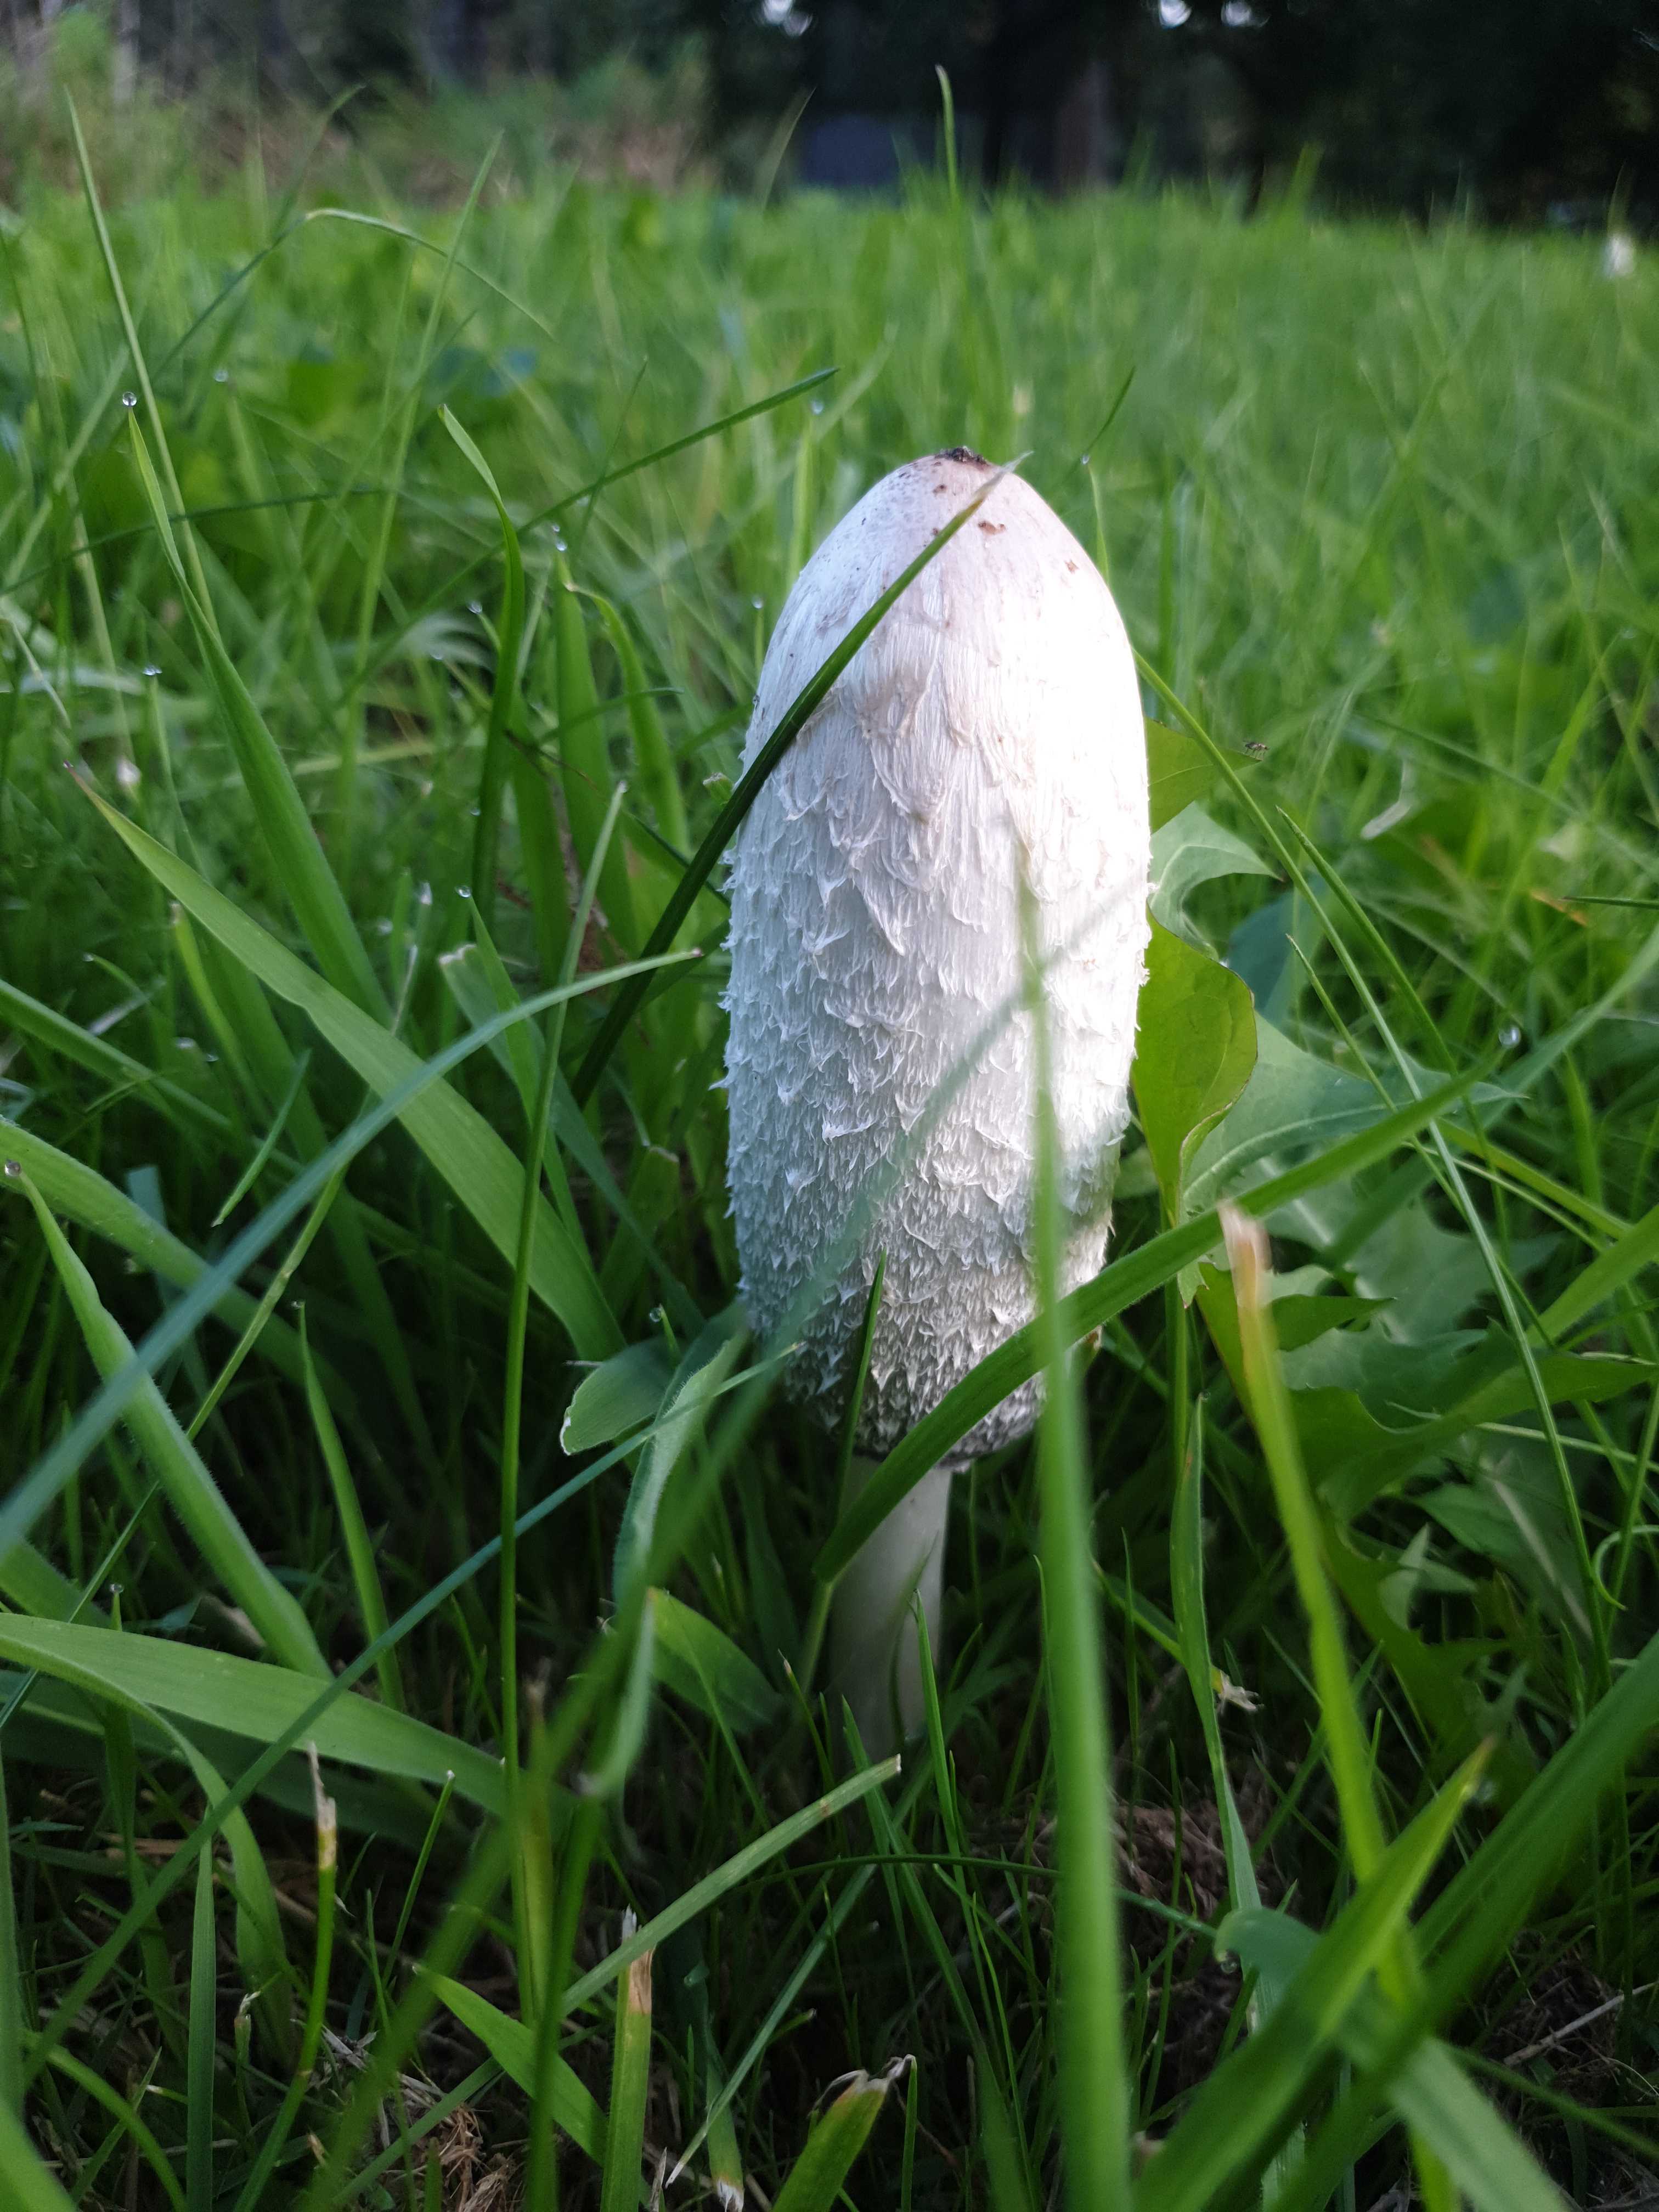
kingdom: Fungi
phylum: Basidiomycota
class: Agaricomycetes
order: Agaricales
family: Agaricaceae
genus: Coprinus
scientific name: Coprinus comatus
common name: stor parykhat
